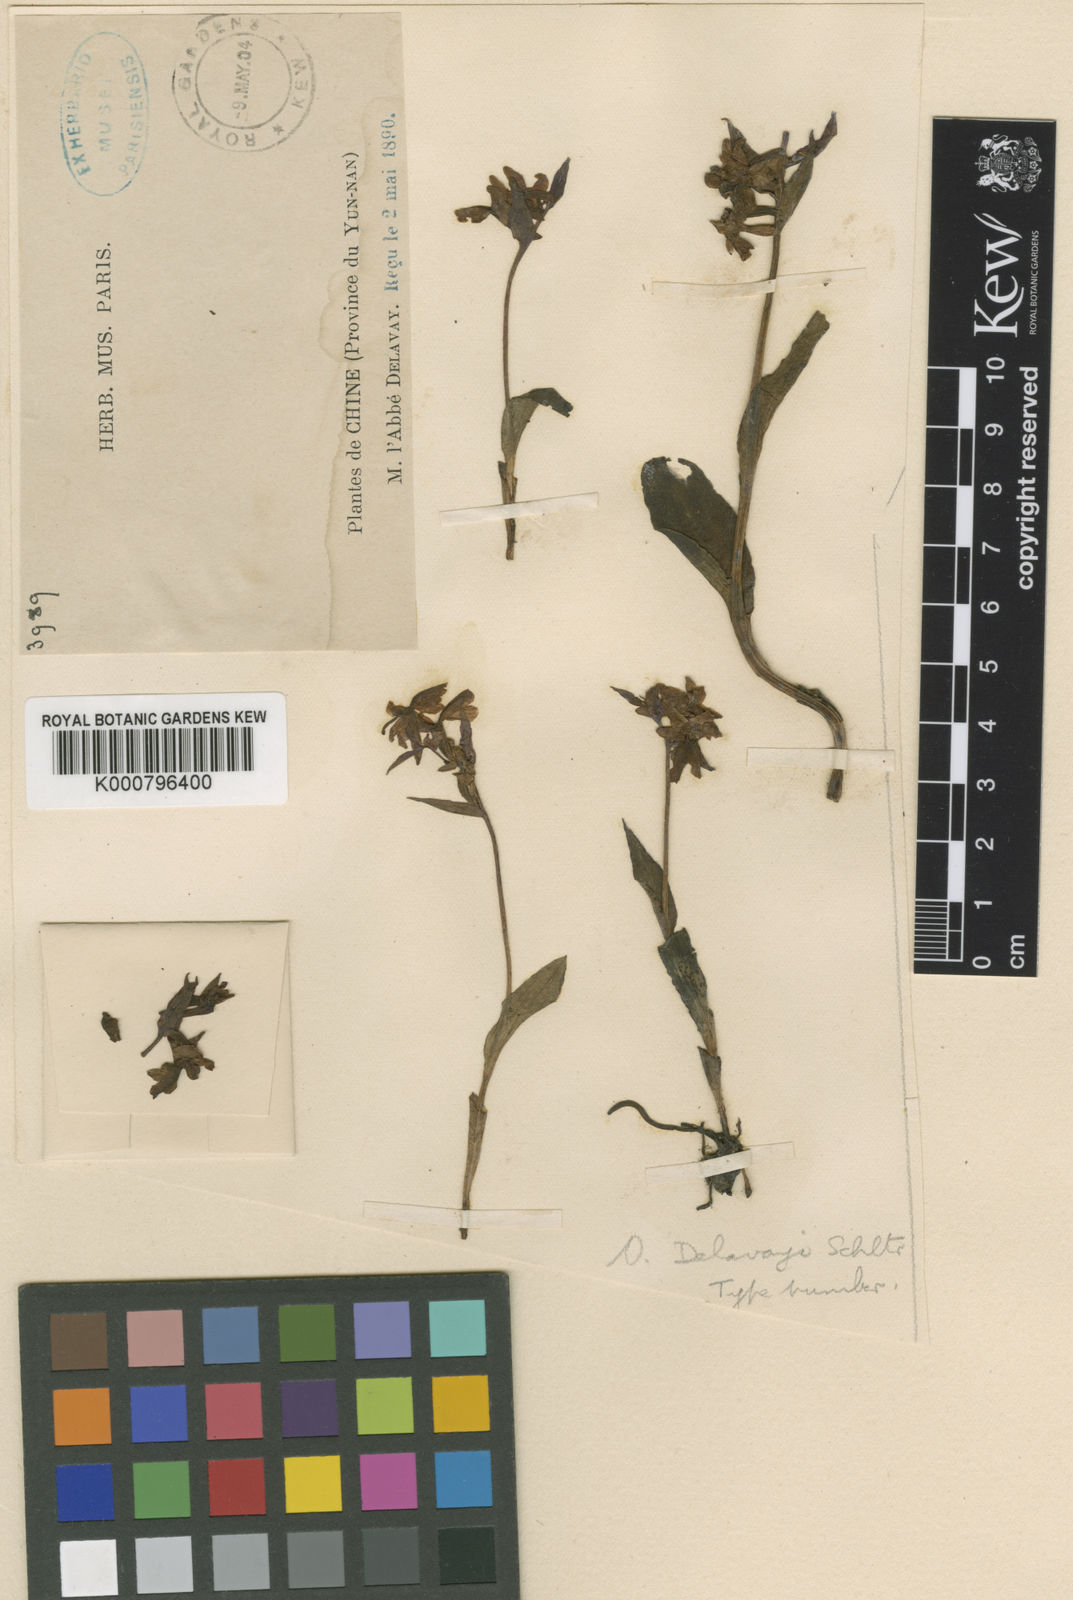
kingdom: Plantae
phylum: Tracheophyta
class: Liliopsida
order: Asparagales
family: Orchidaceae
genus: Hemipilia
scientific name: Hemipilia
